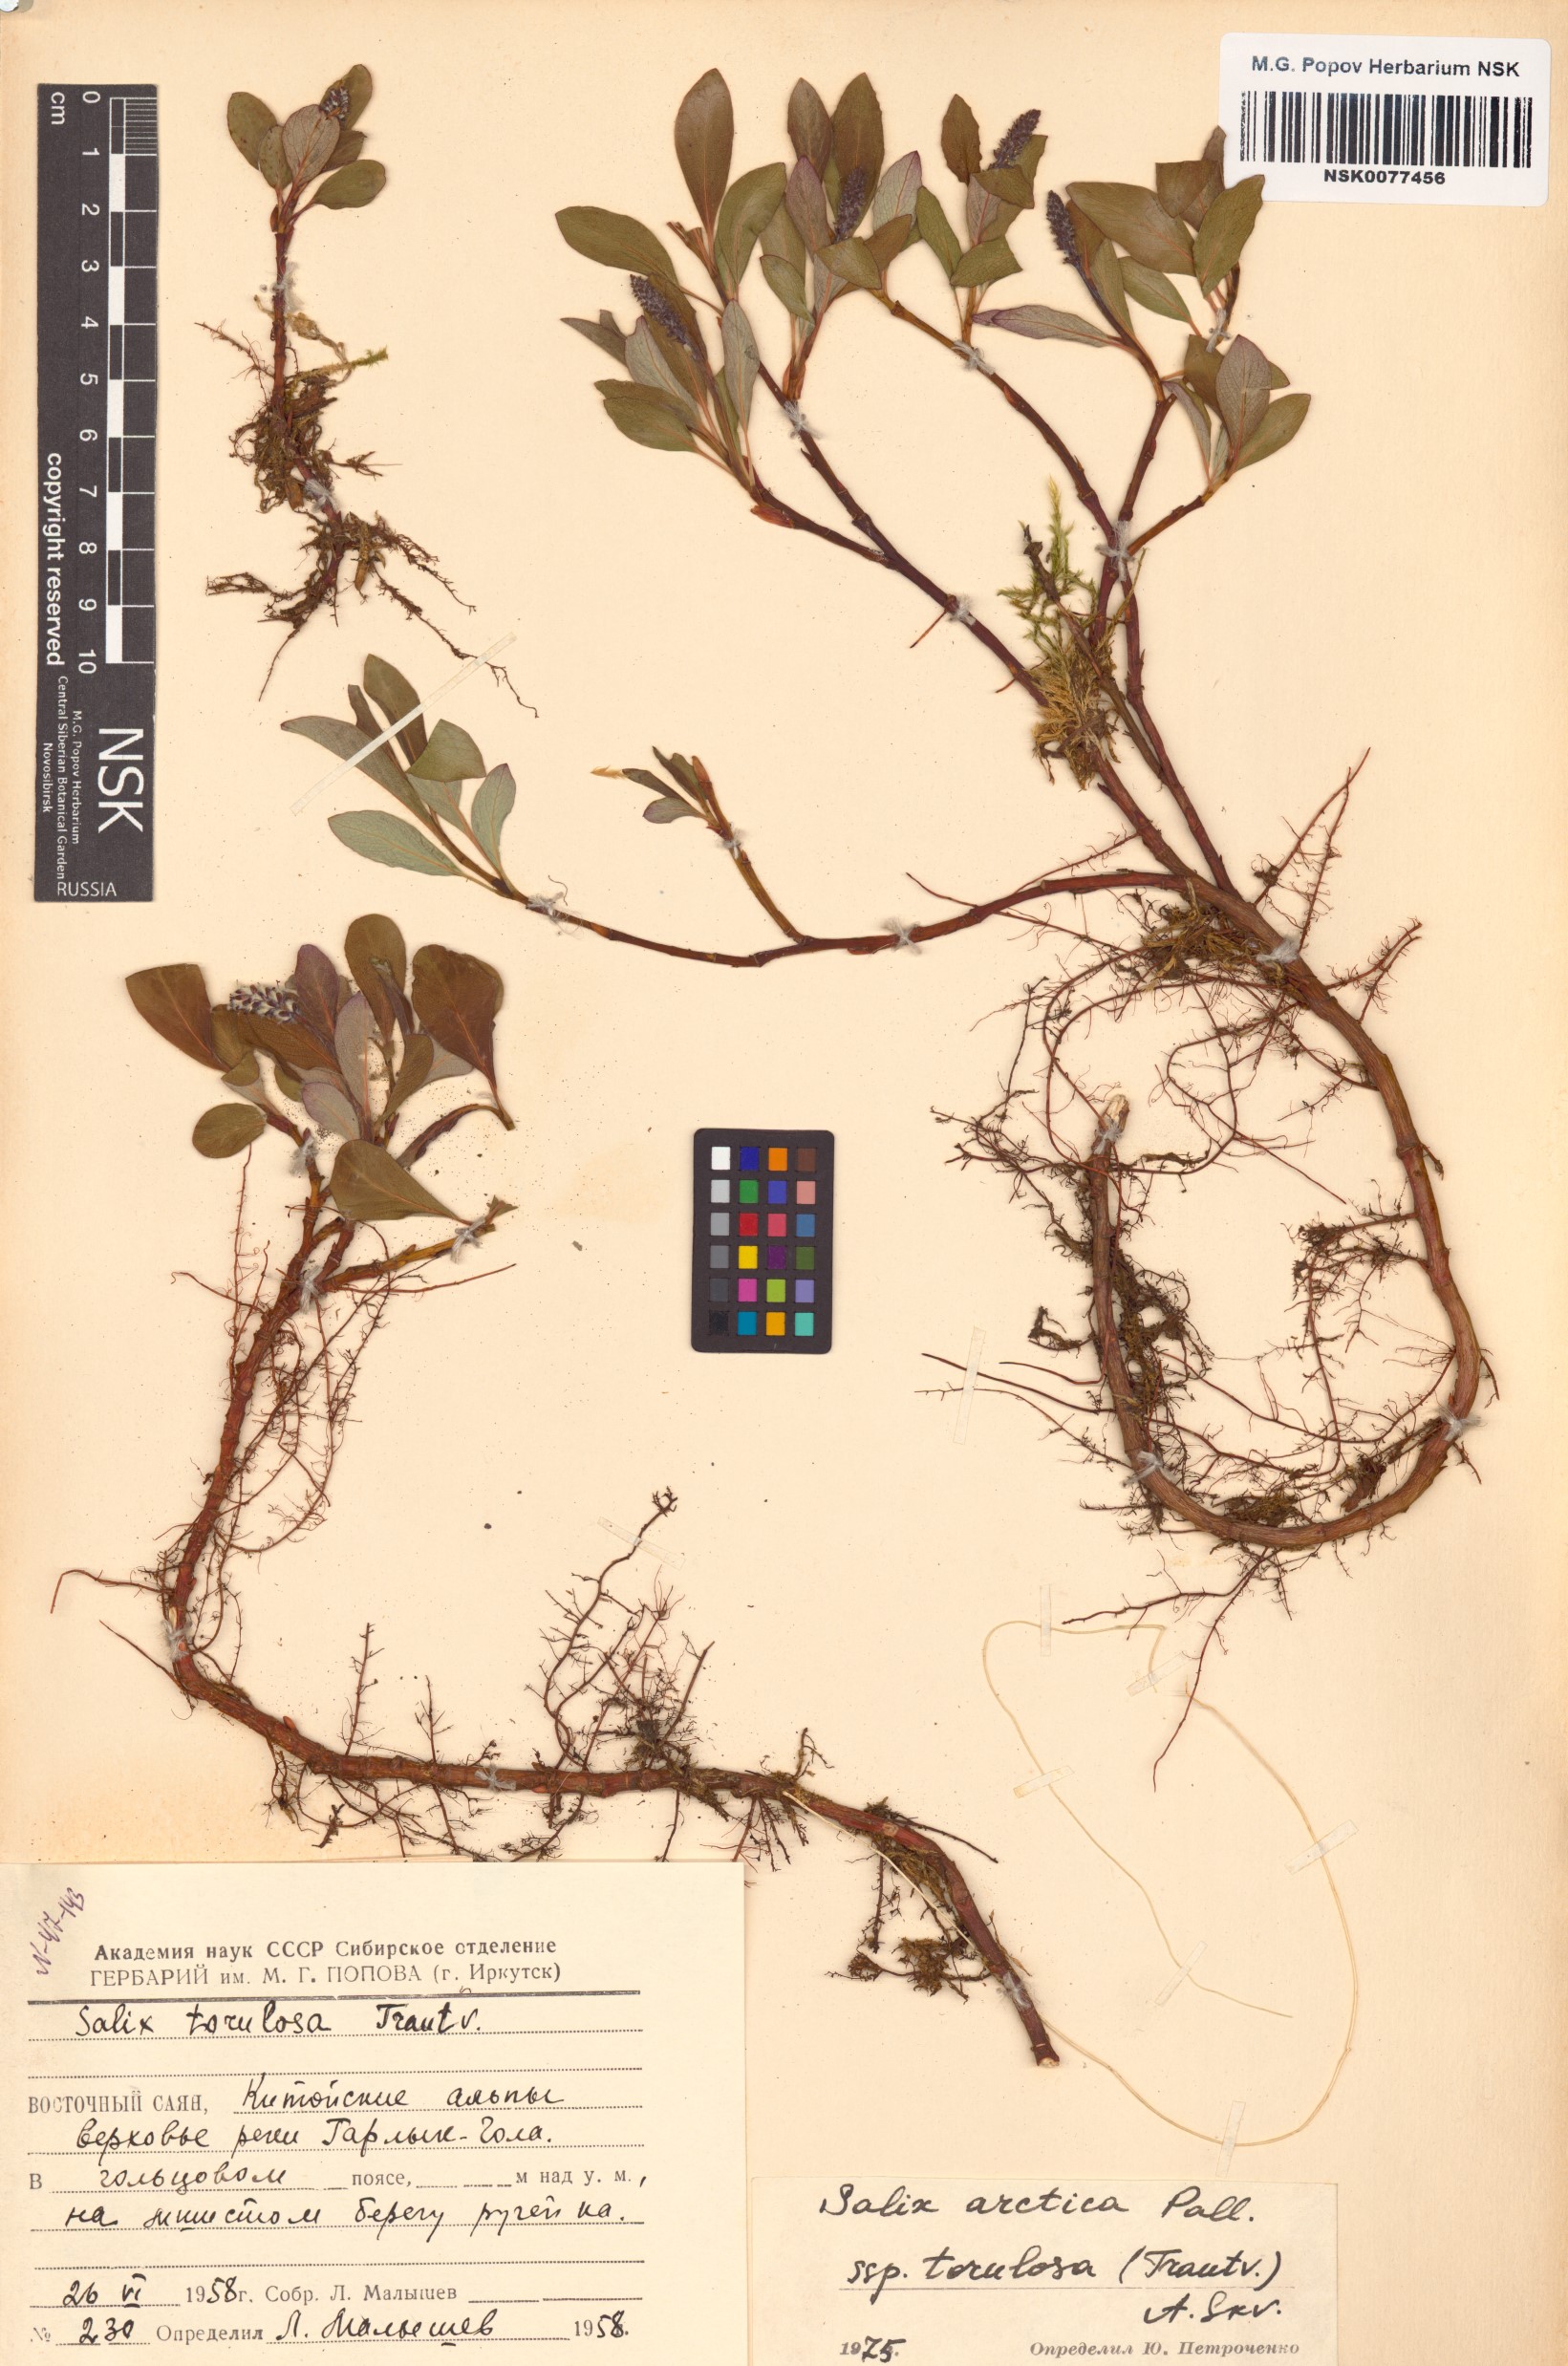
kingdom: Plantae
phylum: Tracheophyta
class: Magnoliopsida
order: Malpighiales
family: Salicaceae
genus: Salix
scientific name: Salix arctica
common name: Arctic willow
